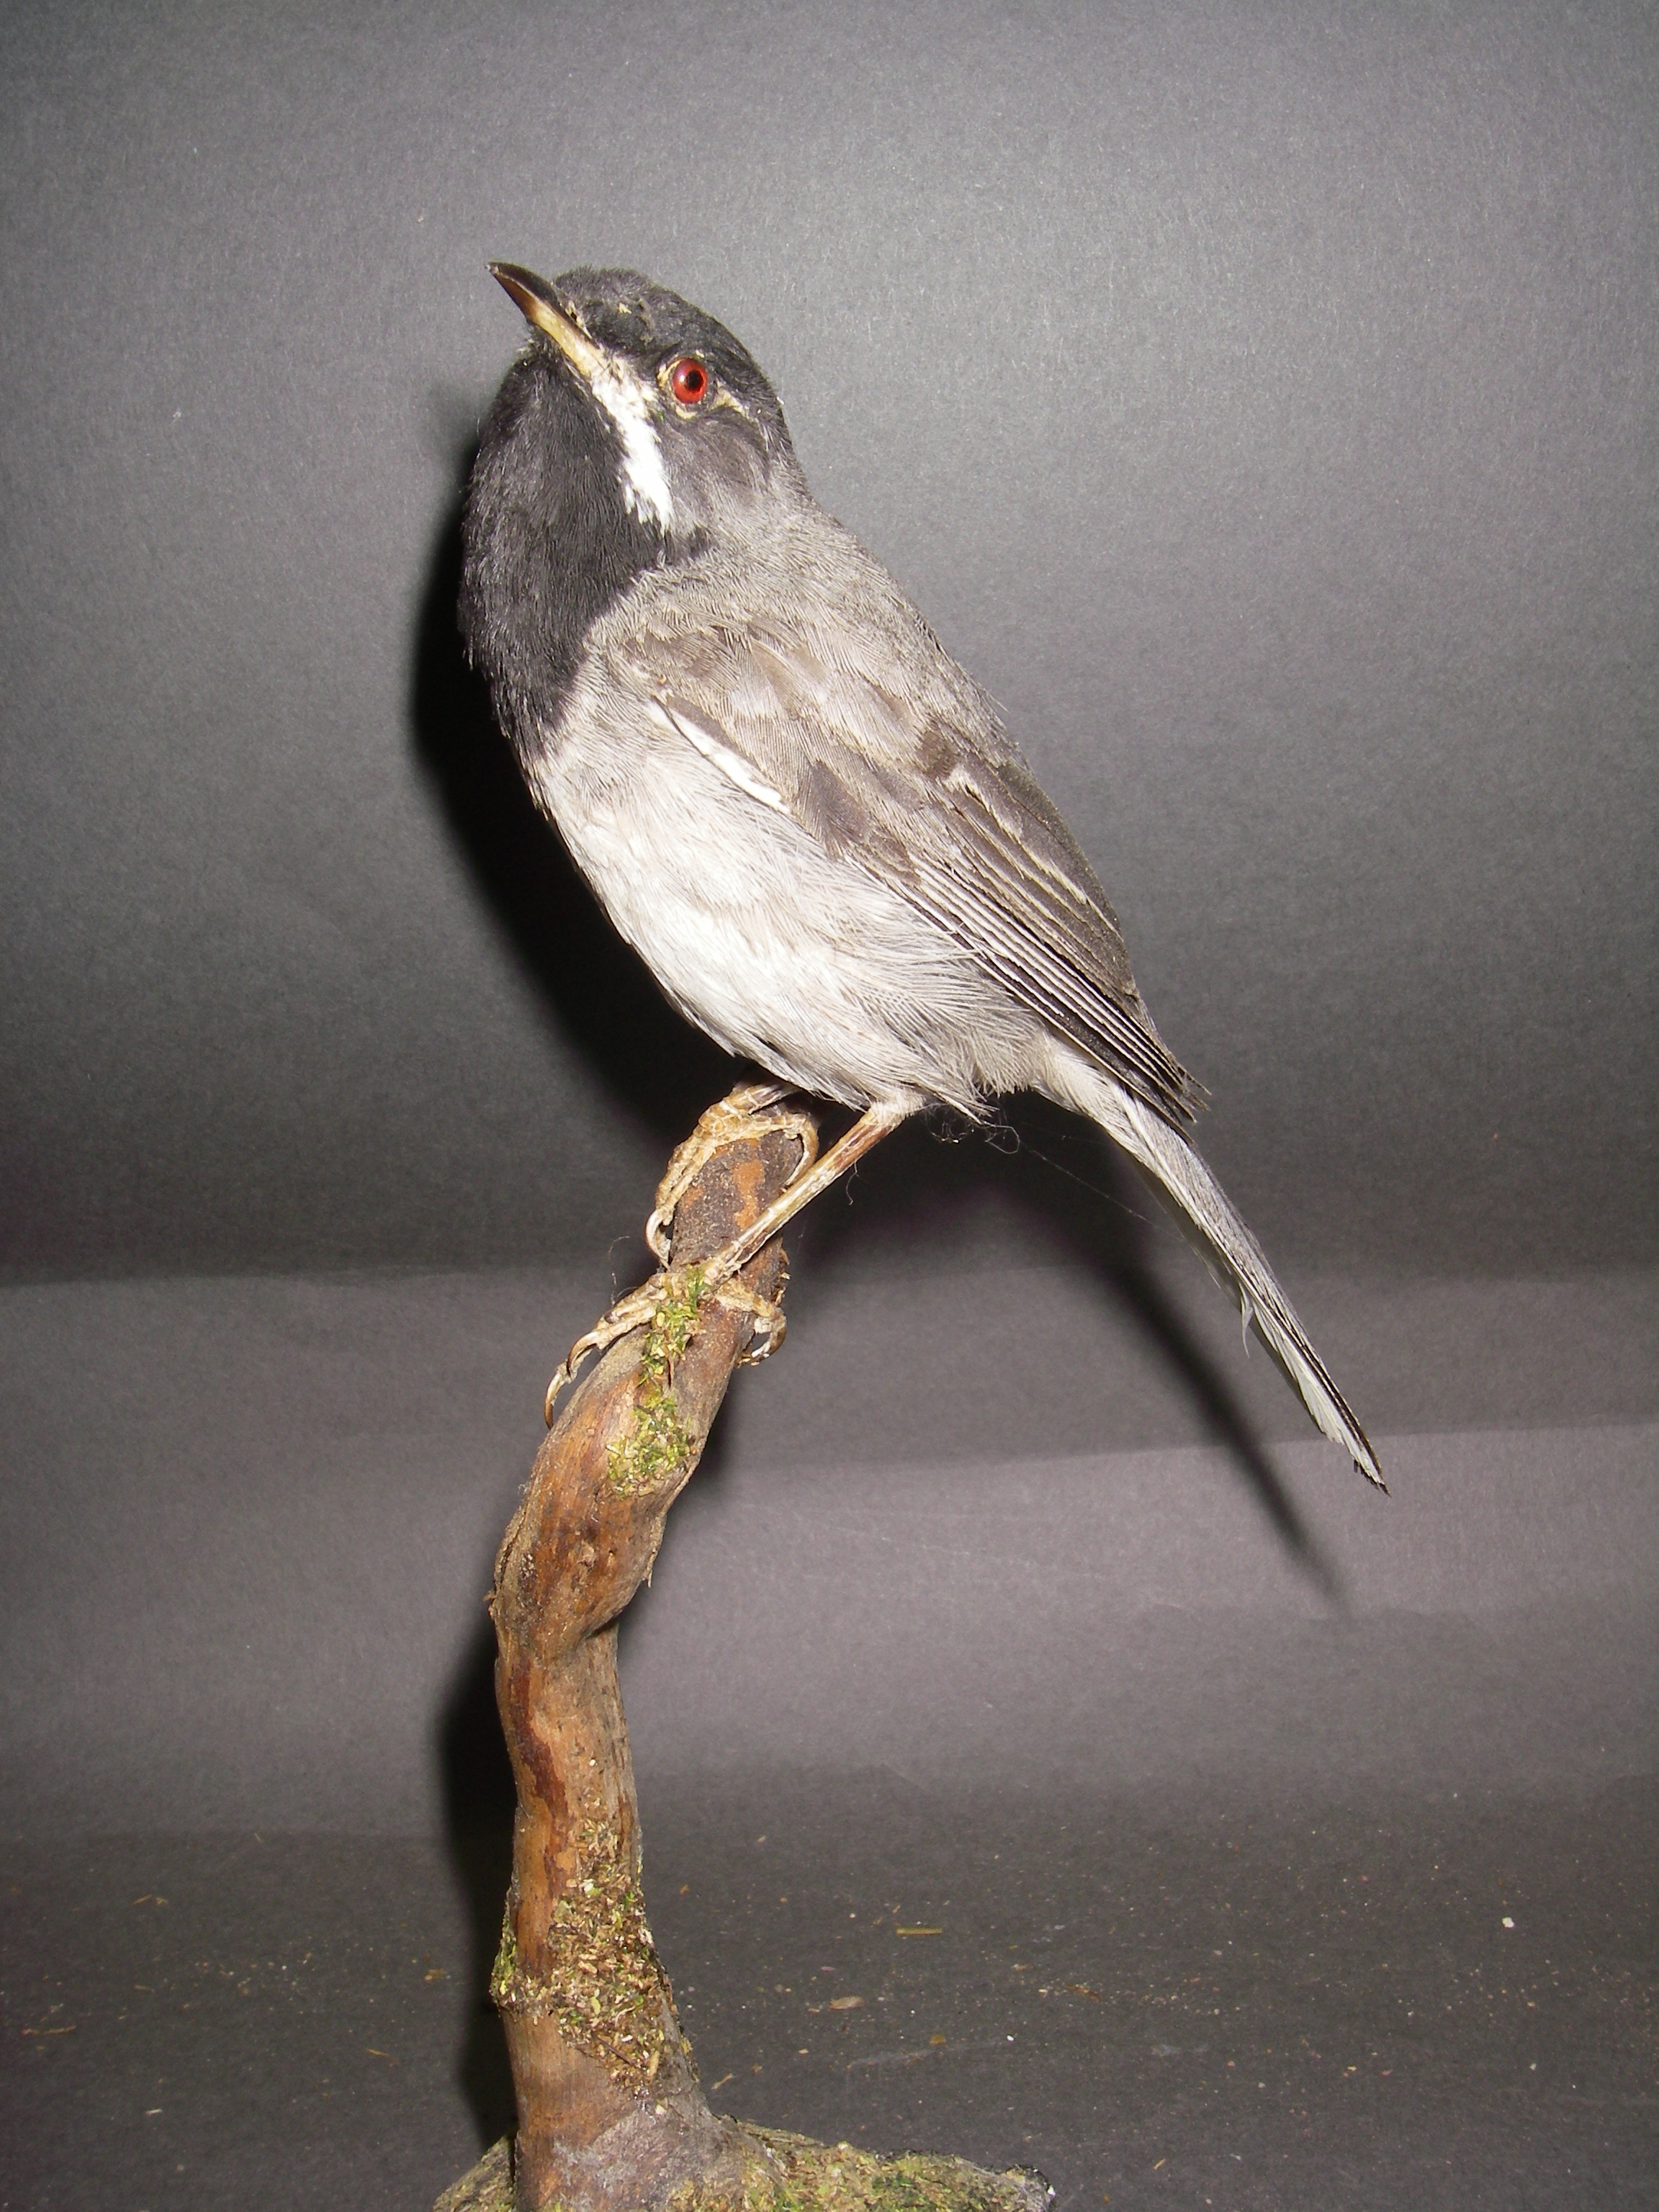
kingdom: Animalia
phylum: Chordata
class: Aves
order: Passeriformes
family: Sylviidae
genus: Sylvia
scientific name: Sylvia ruppeli
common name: Rüppell's warbler
